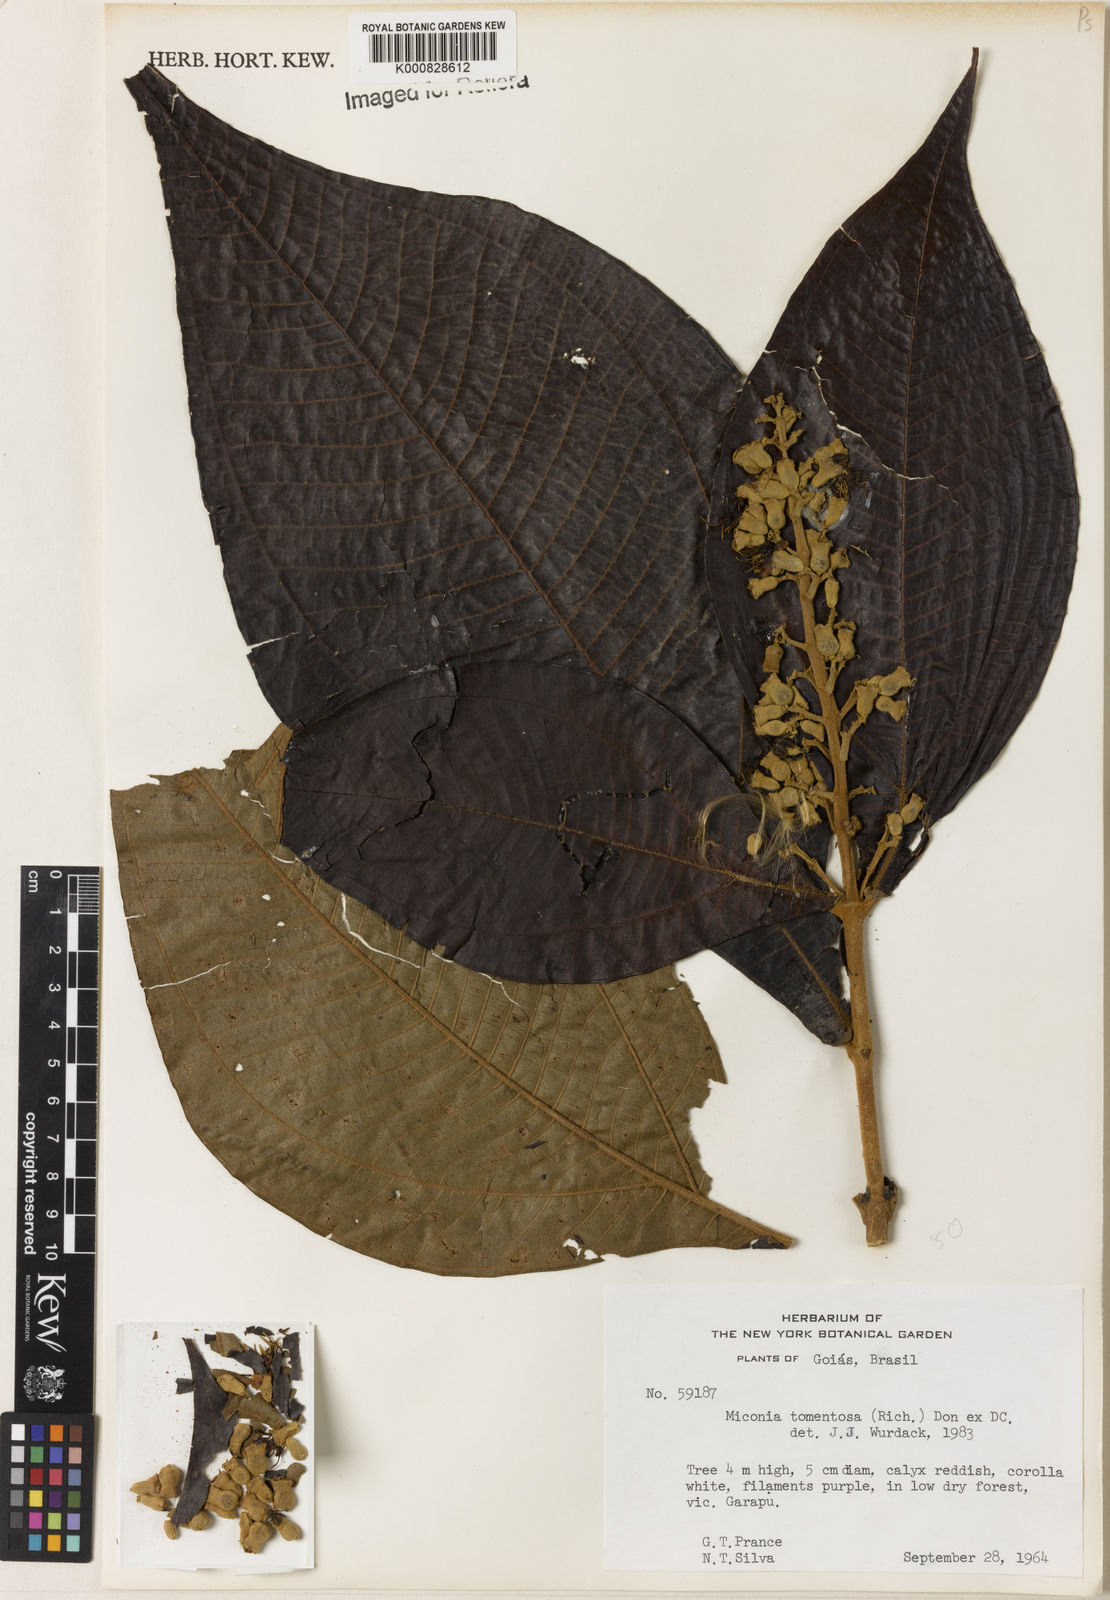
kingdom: Plantae
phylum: Tracheophyta
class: Magnoliopsida
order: Myrtales
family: Melastomataceae
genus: Miconia
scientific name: Miconia tomentosa
